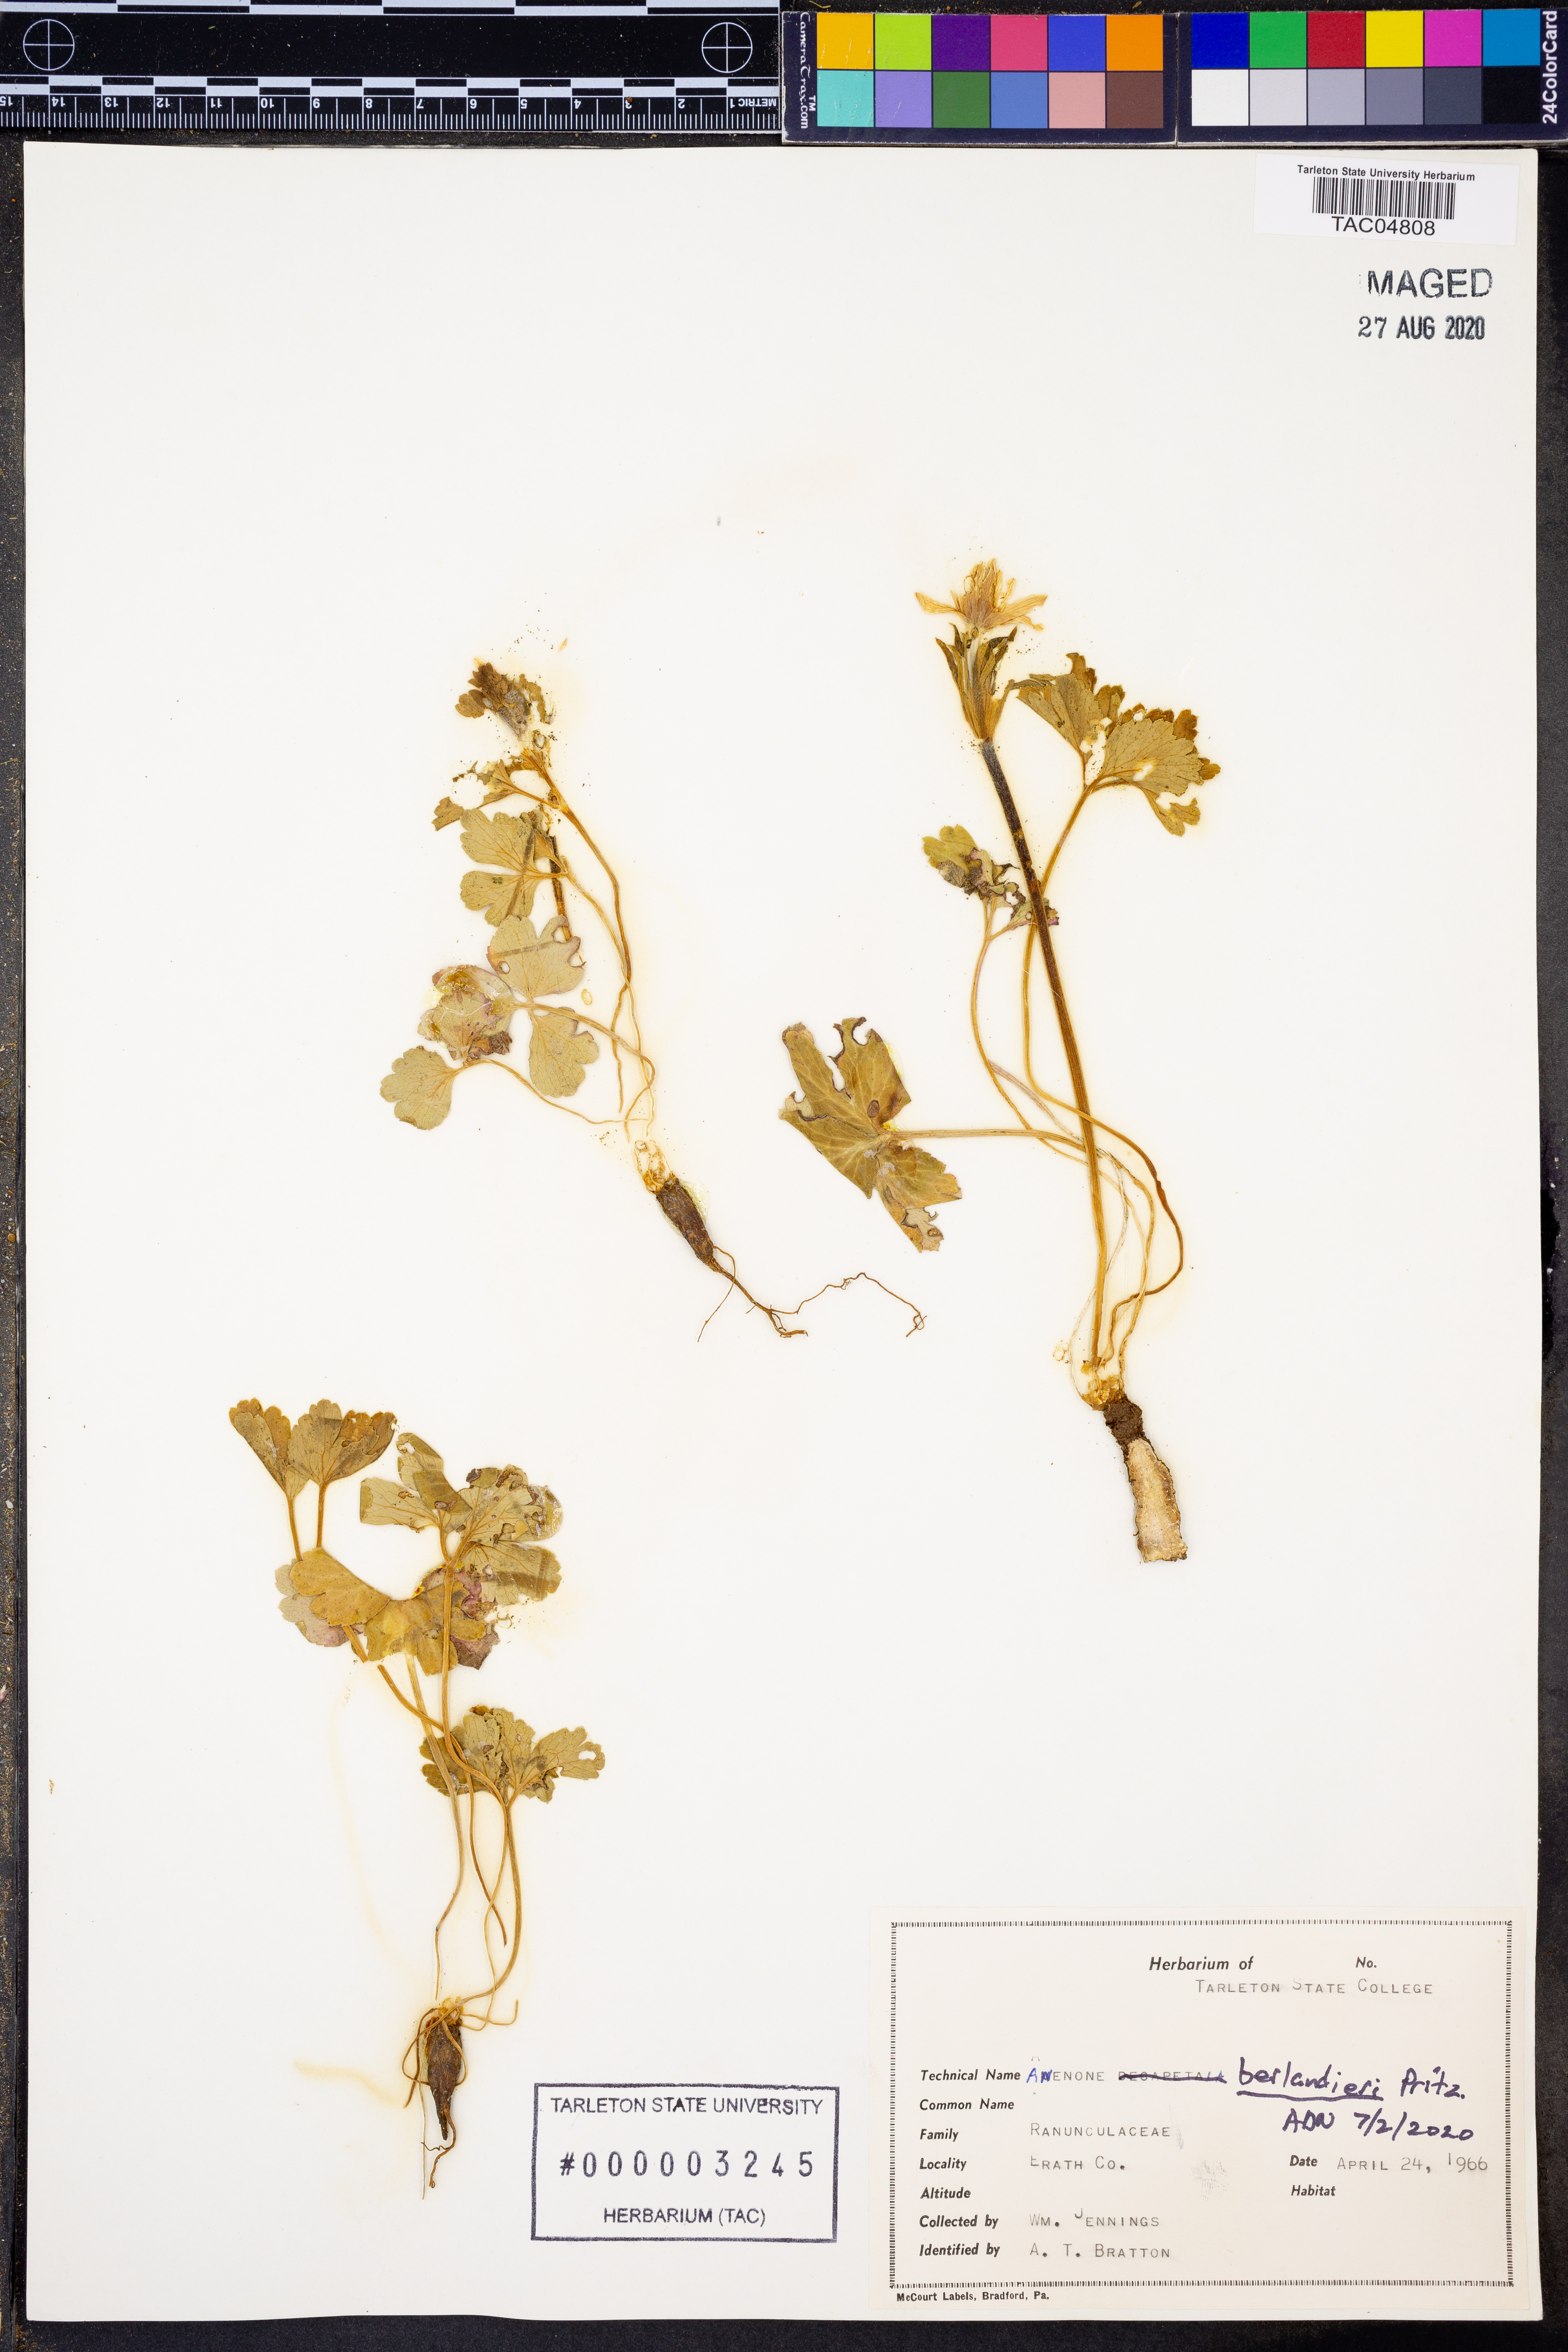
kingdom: Plantae
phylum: Tracheophyta
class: Magnoliopsida
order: Ranunculales
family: Ranunculaceae
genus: Anemone
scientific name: Anemone berlandieri
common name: Ten-petal anemone
